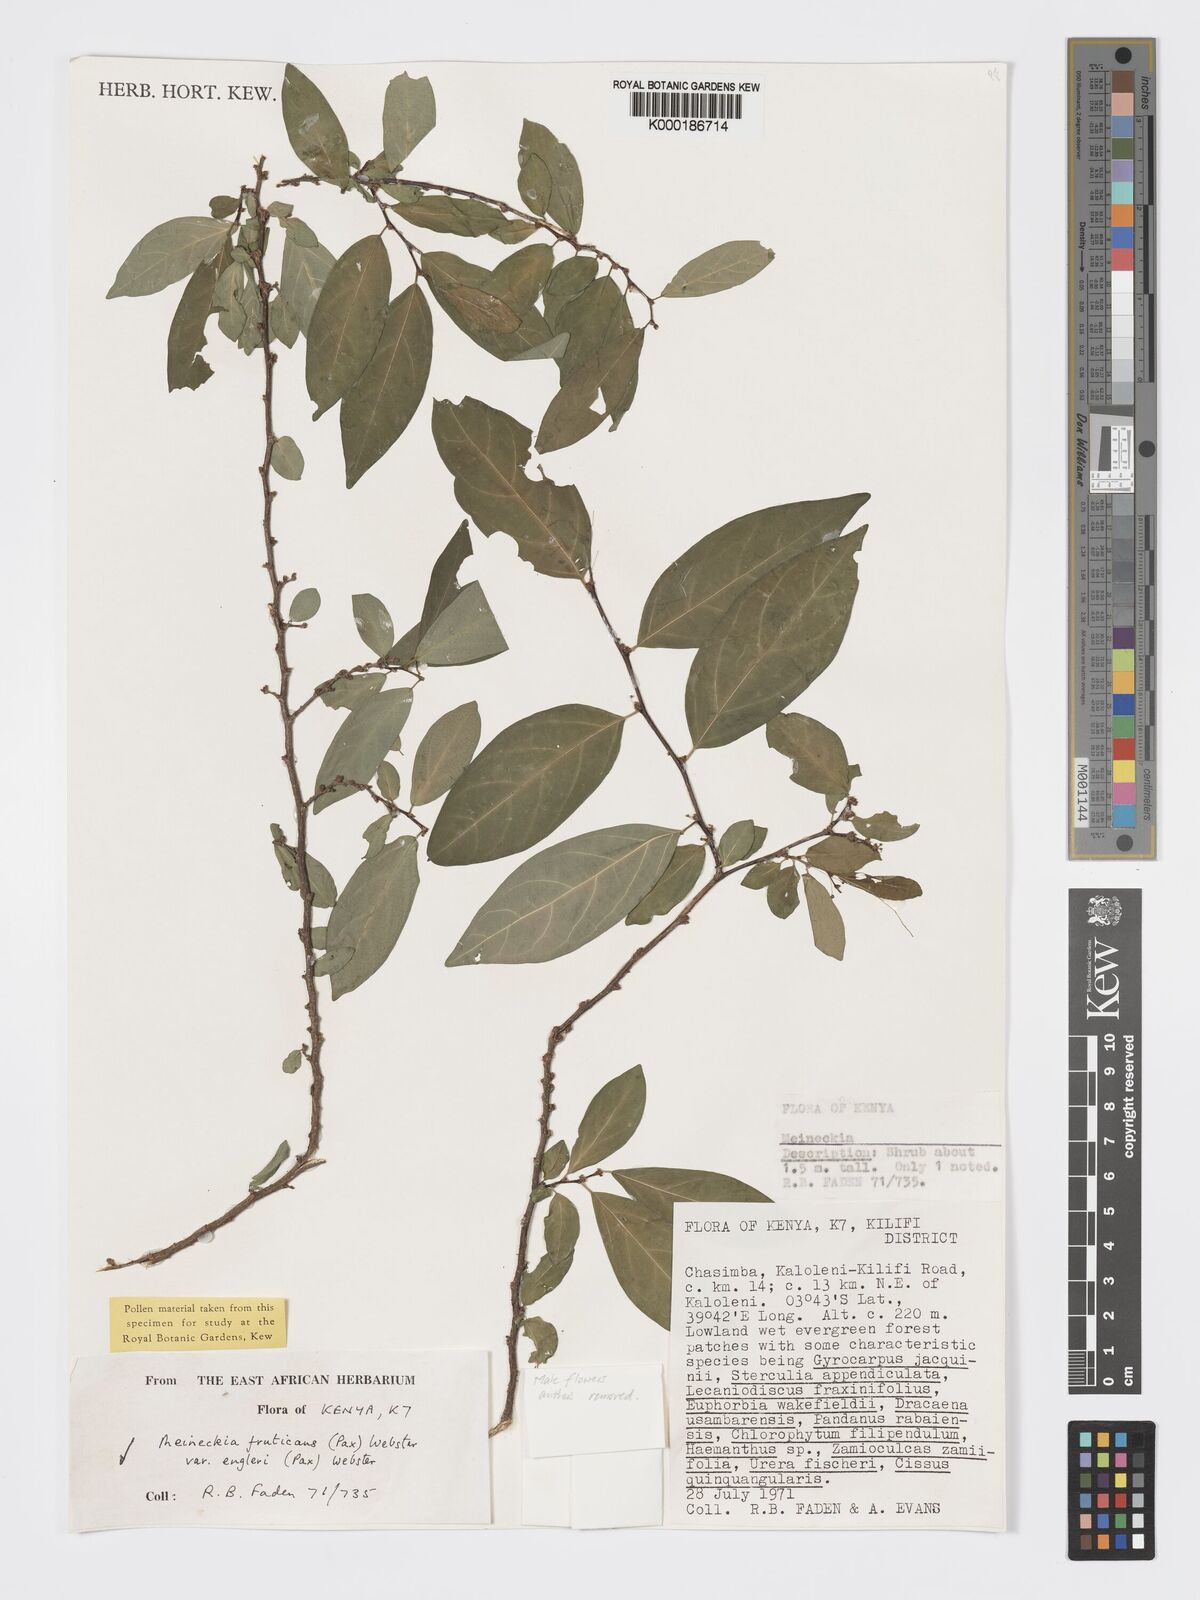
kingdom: Plantae
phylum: Tracheophyta
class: Magnoliopsida
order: Malpighiales
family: Phyllanthaceae
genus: Meineckia
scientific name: Meineckia fruticans
